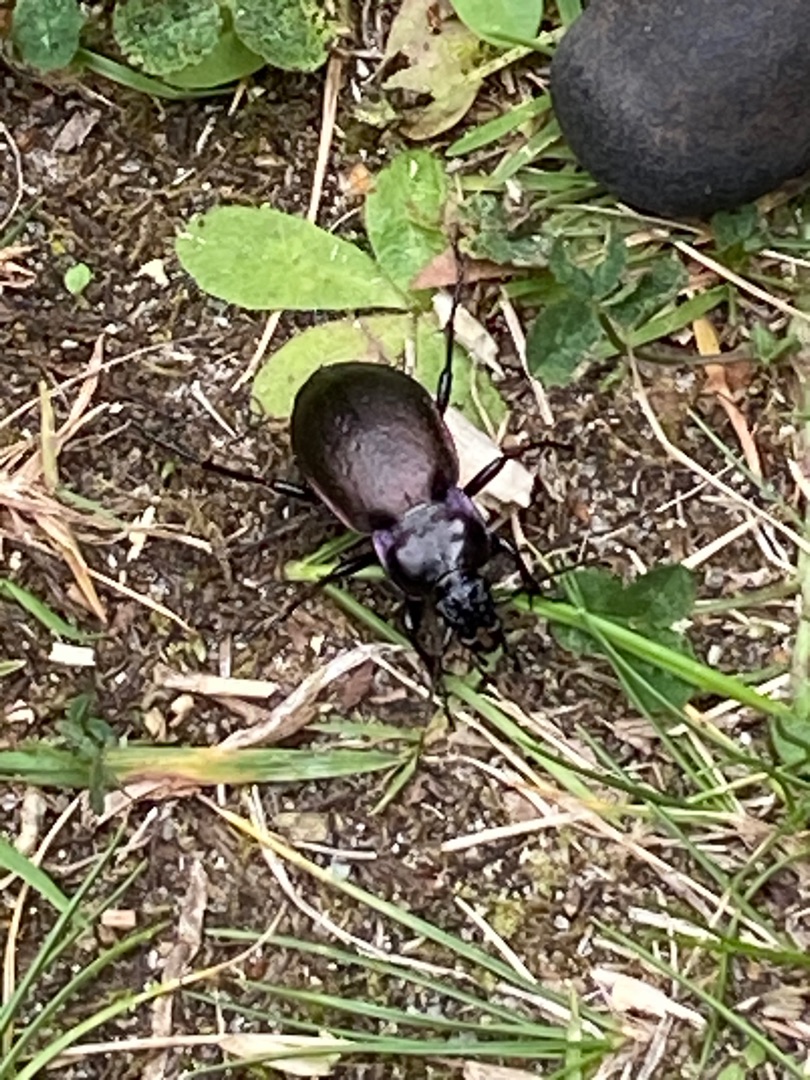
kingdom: Animalia
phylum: Arthropoda
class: Insecta
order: Coleoptera
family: Carabidae
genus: Carabus
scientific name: Carabus nemoralis
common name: Kratløber
